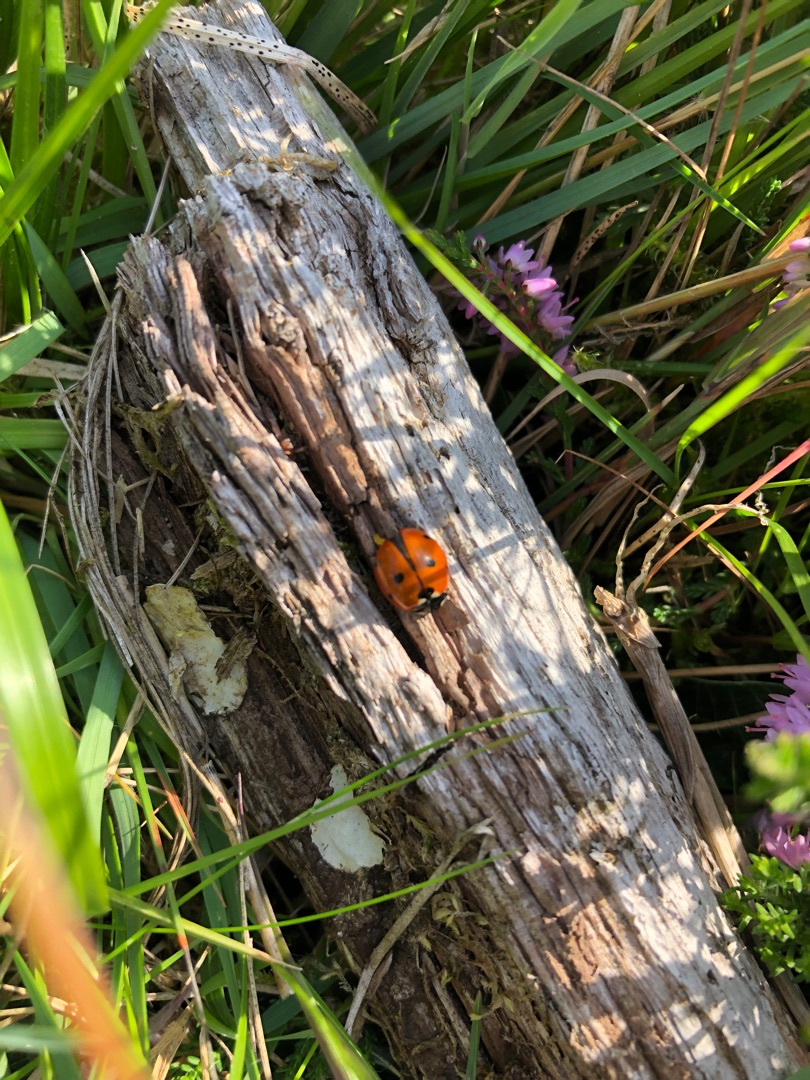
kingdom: Animalia
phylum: Arthropoda
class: Insecta
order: Coleoptera
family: Coccinellidae
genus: Coccinella
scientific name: Coccinella septempunctata
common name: Syvplettet mariehøne
